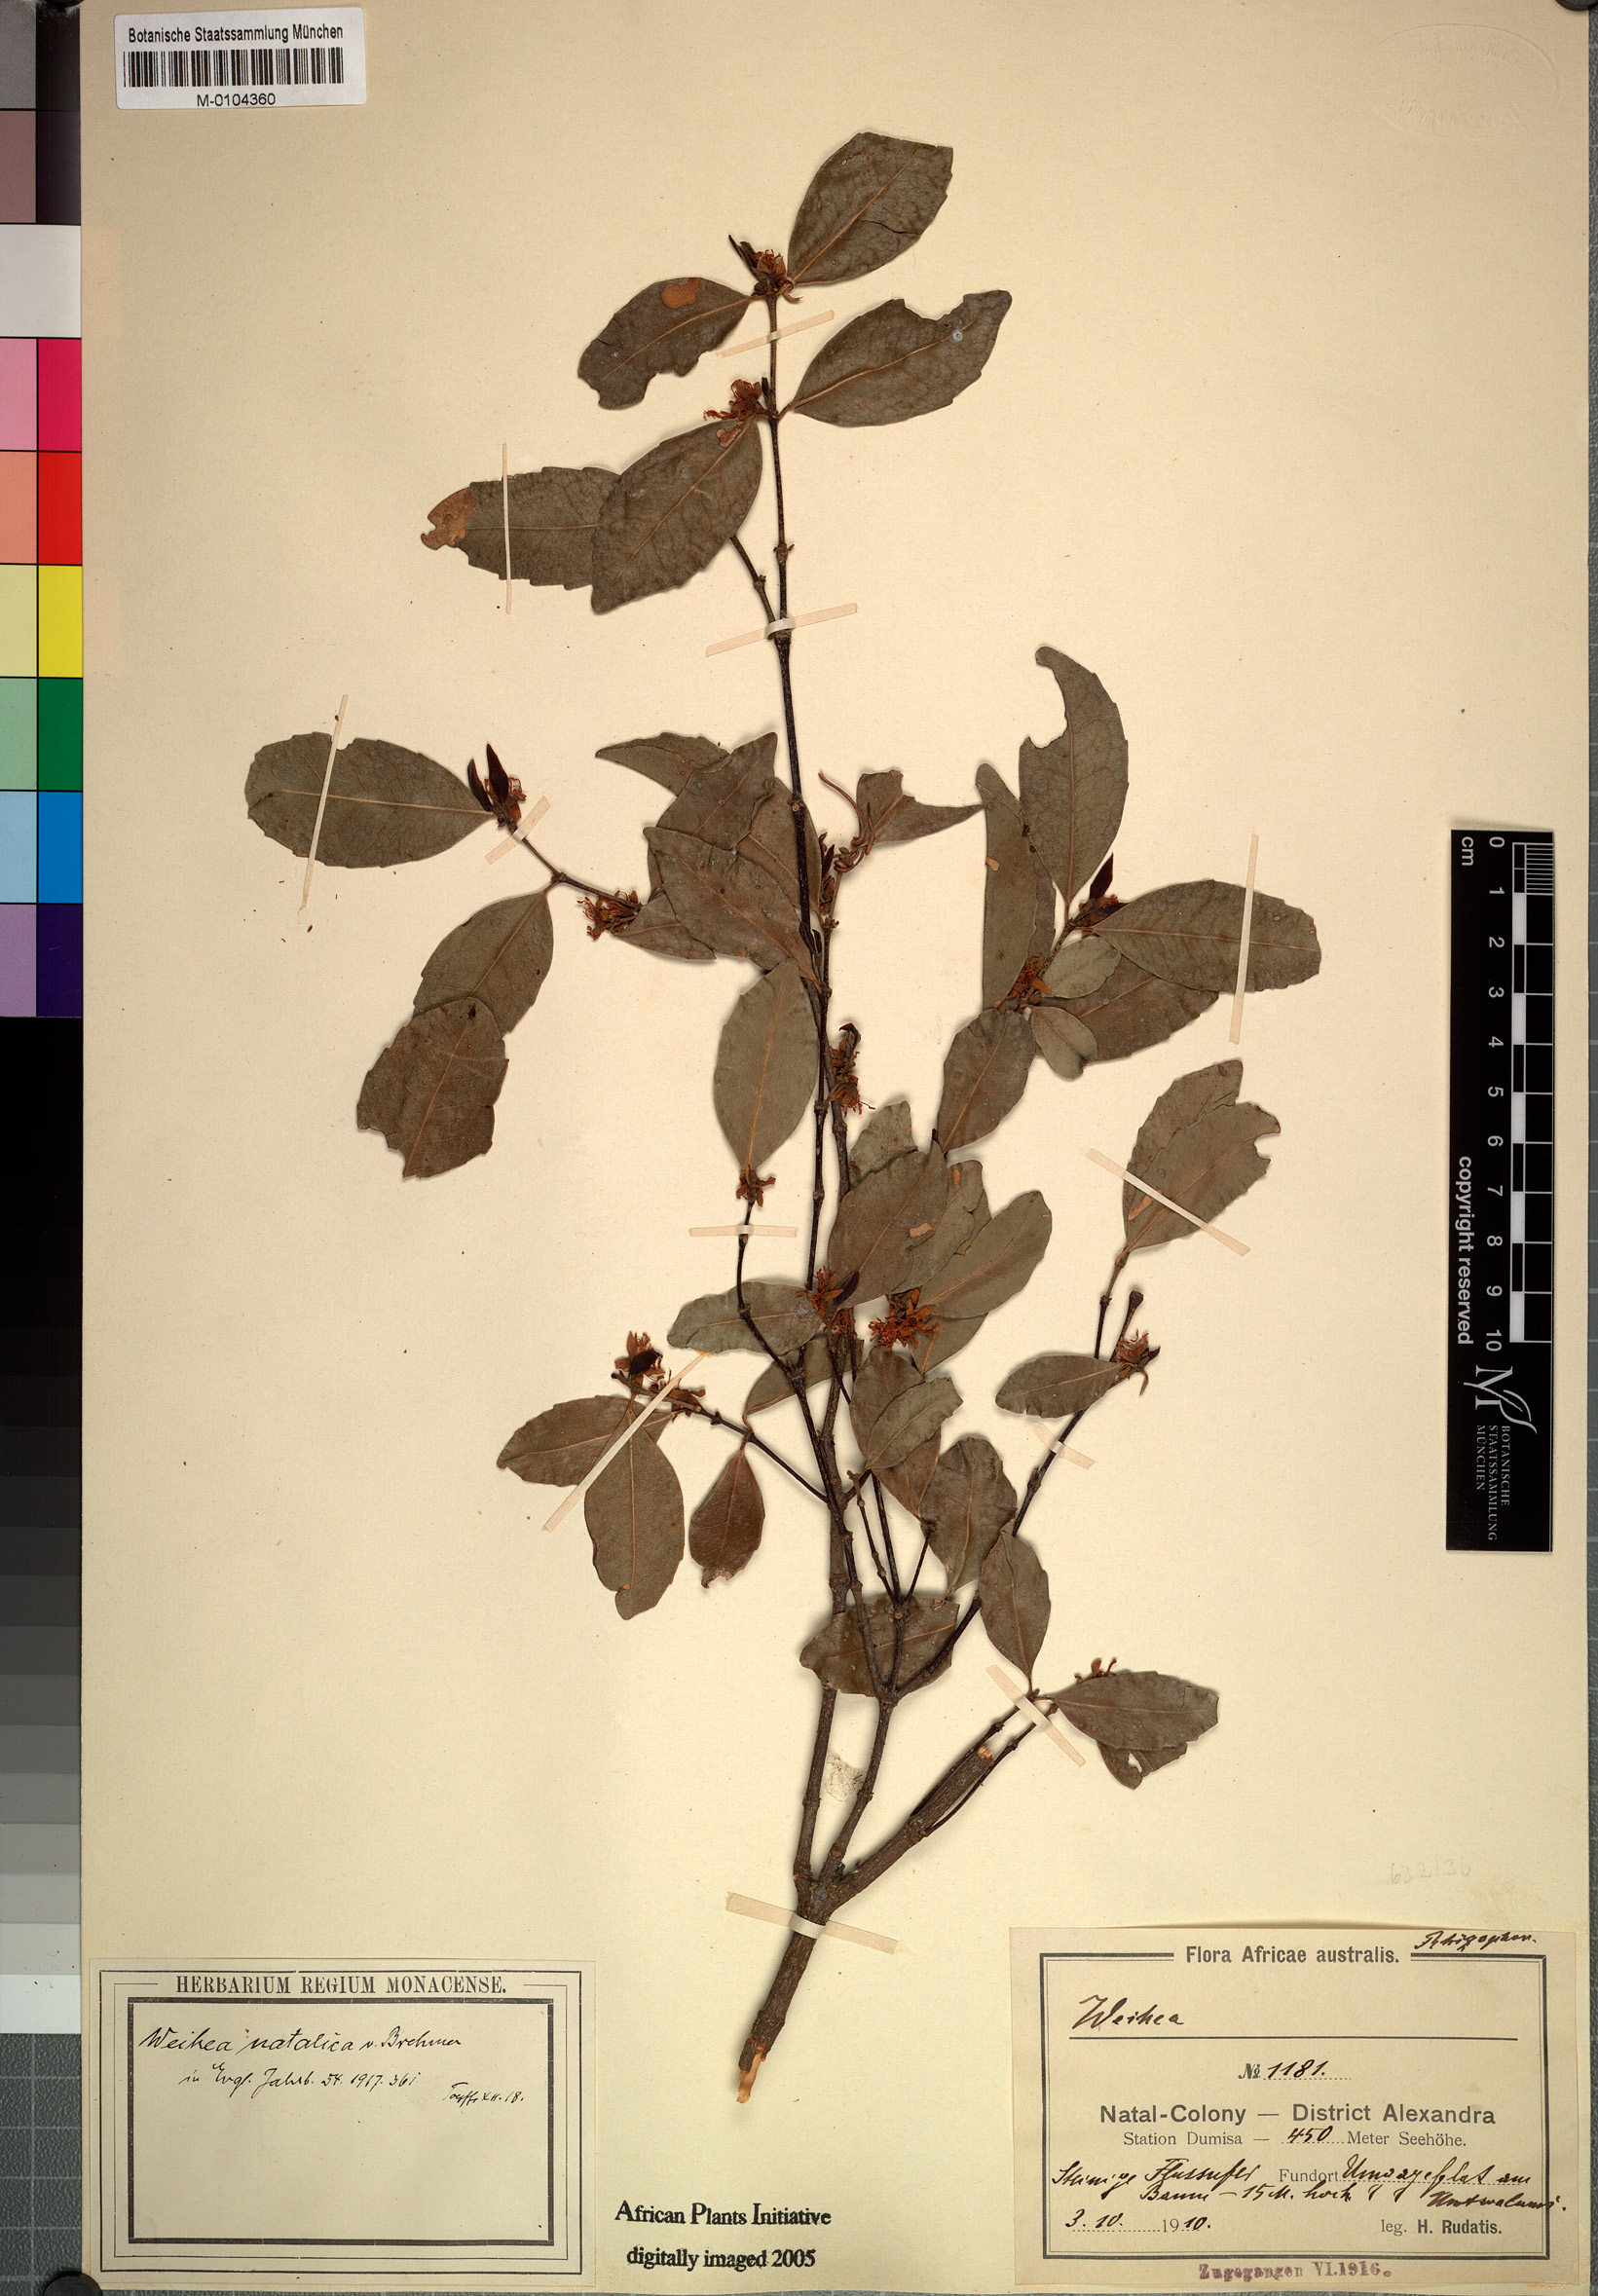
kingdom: Plantae
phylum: Tracheophyta
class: Magnoliopsida
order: Malpighiales
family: Rhizophoraceae
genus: Cassipourea
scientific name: Cassipourea Weihea natalica
